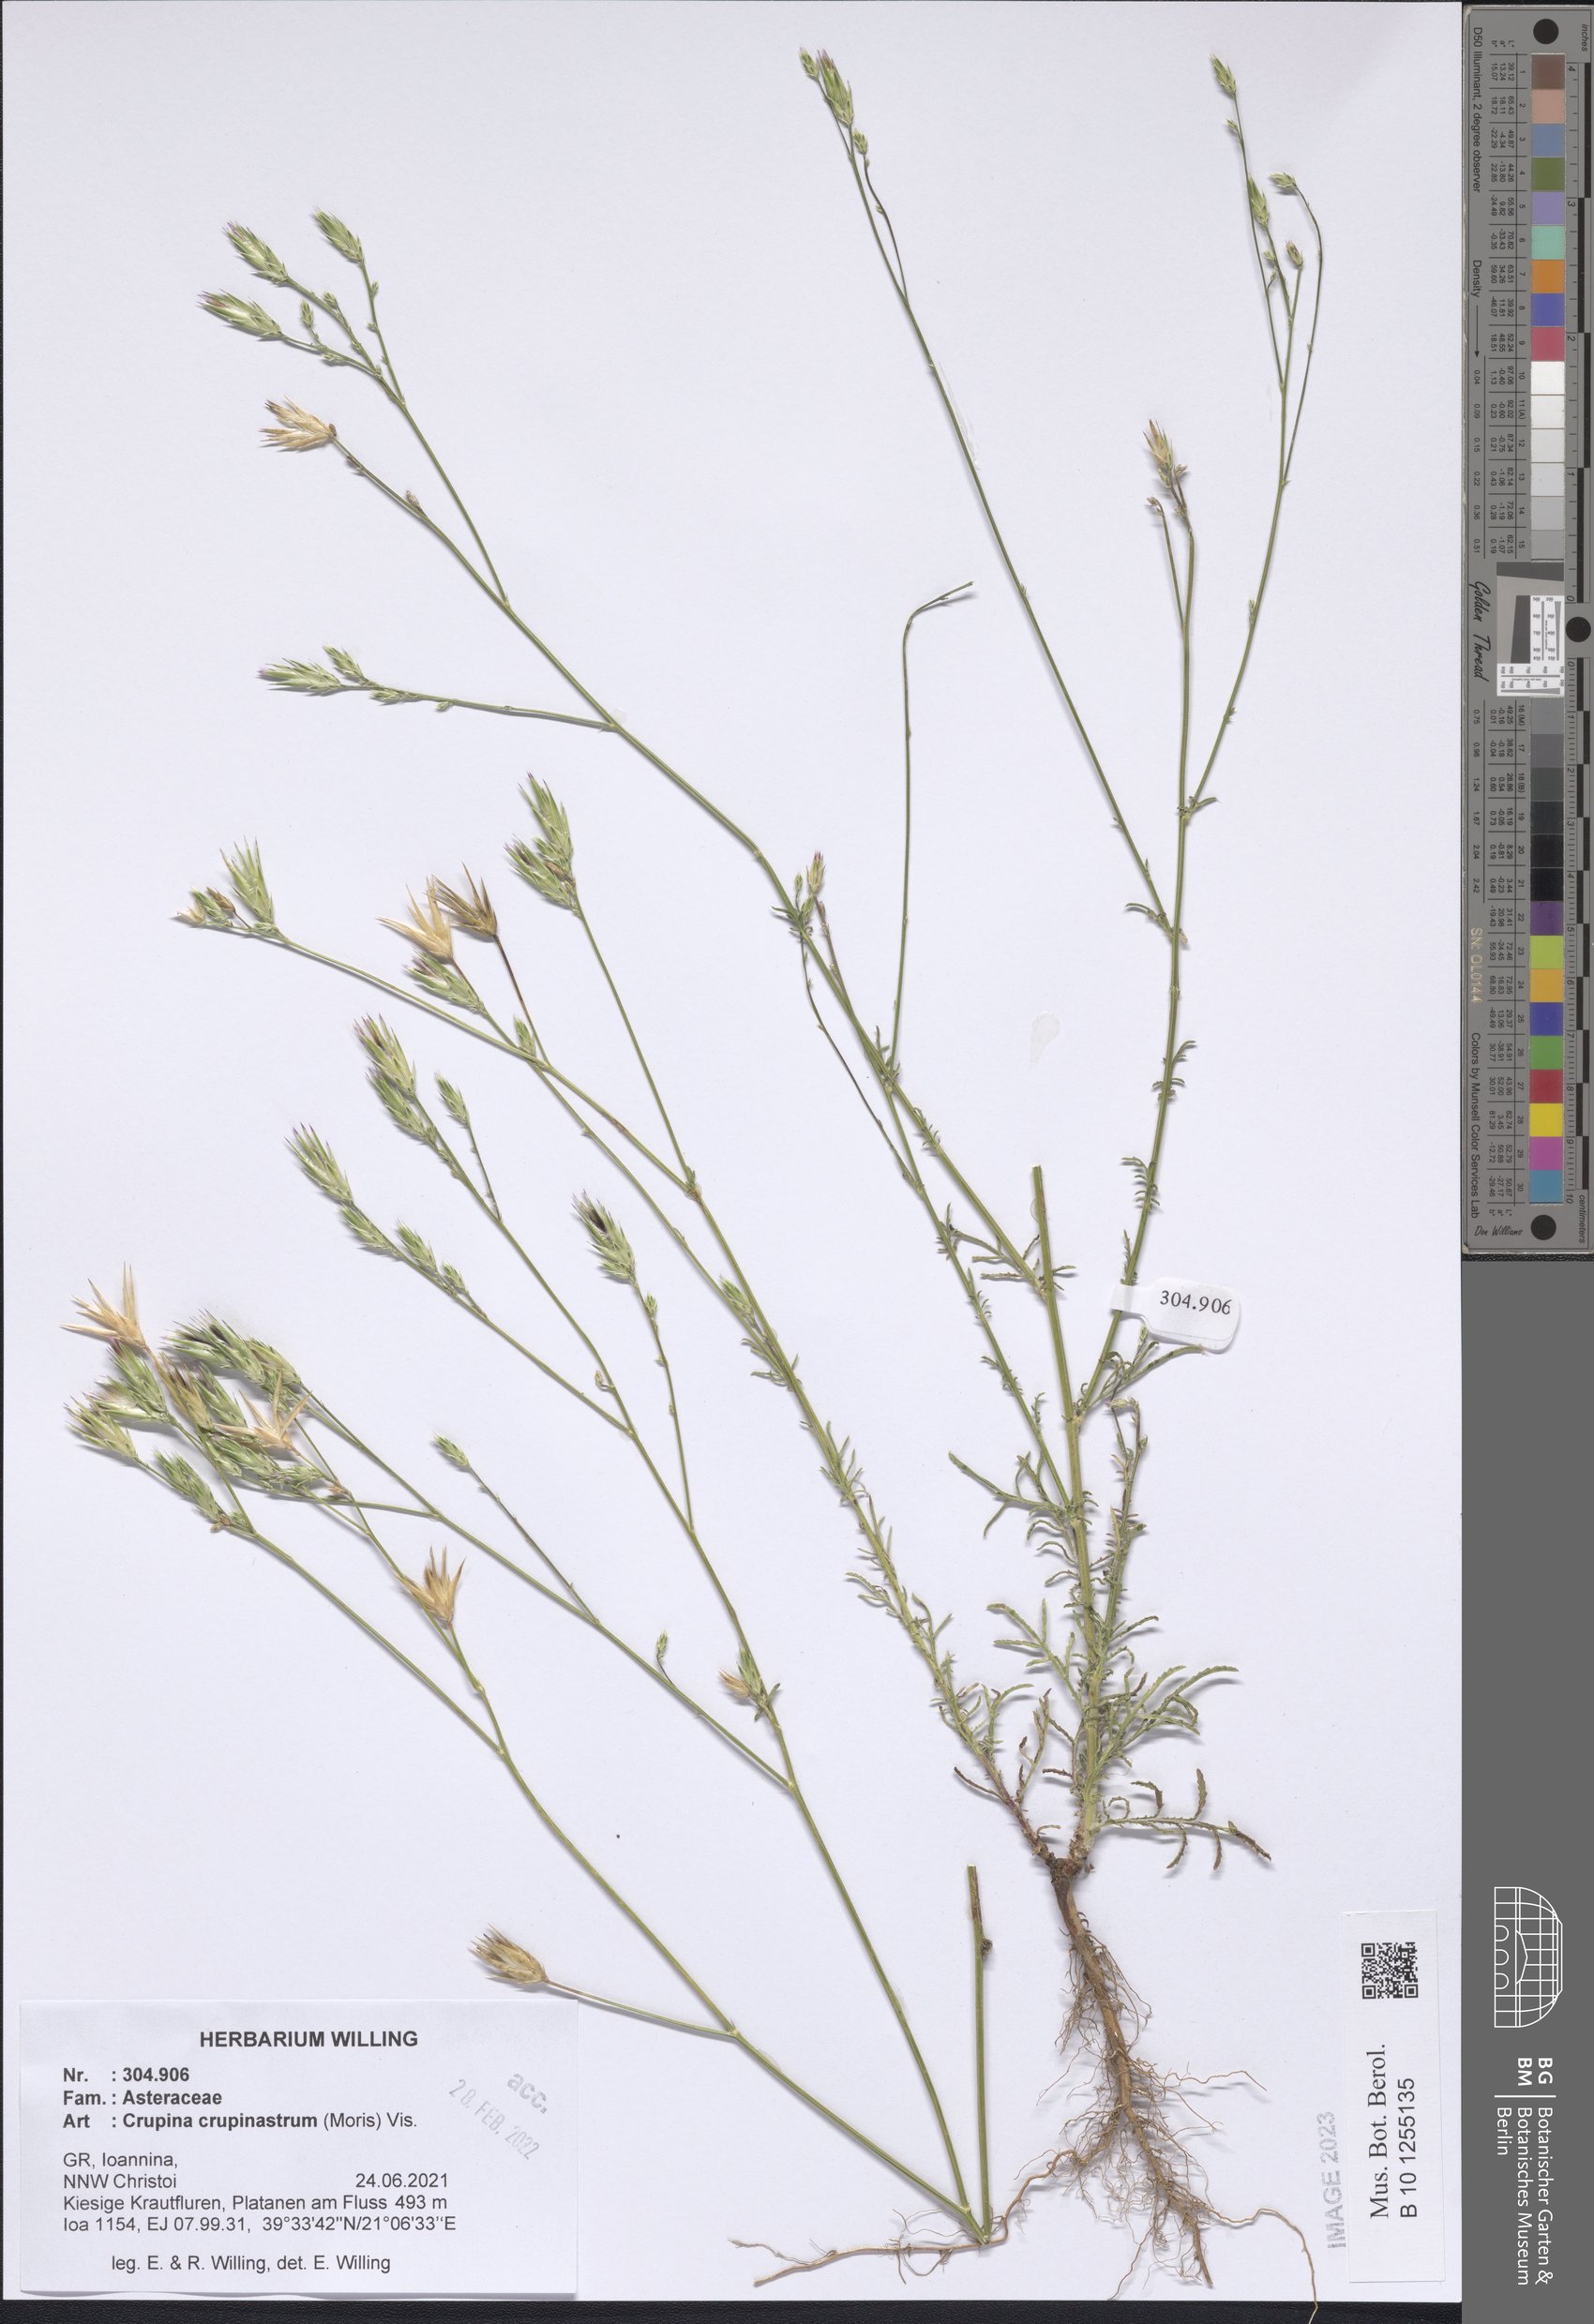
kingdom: Plantae
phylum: Tracheophyta
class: Magnoliopsida
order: Asterales
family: Asteraceae
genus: Crupina
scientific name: Crupina crupinastrum
